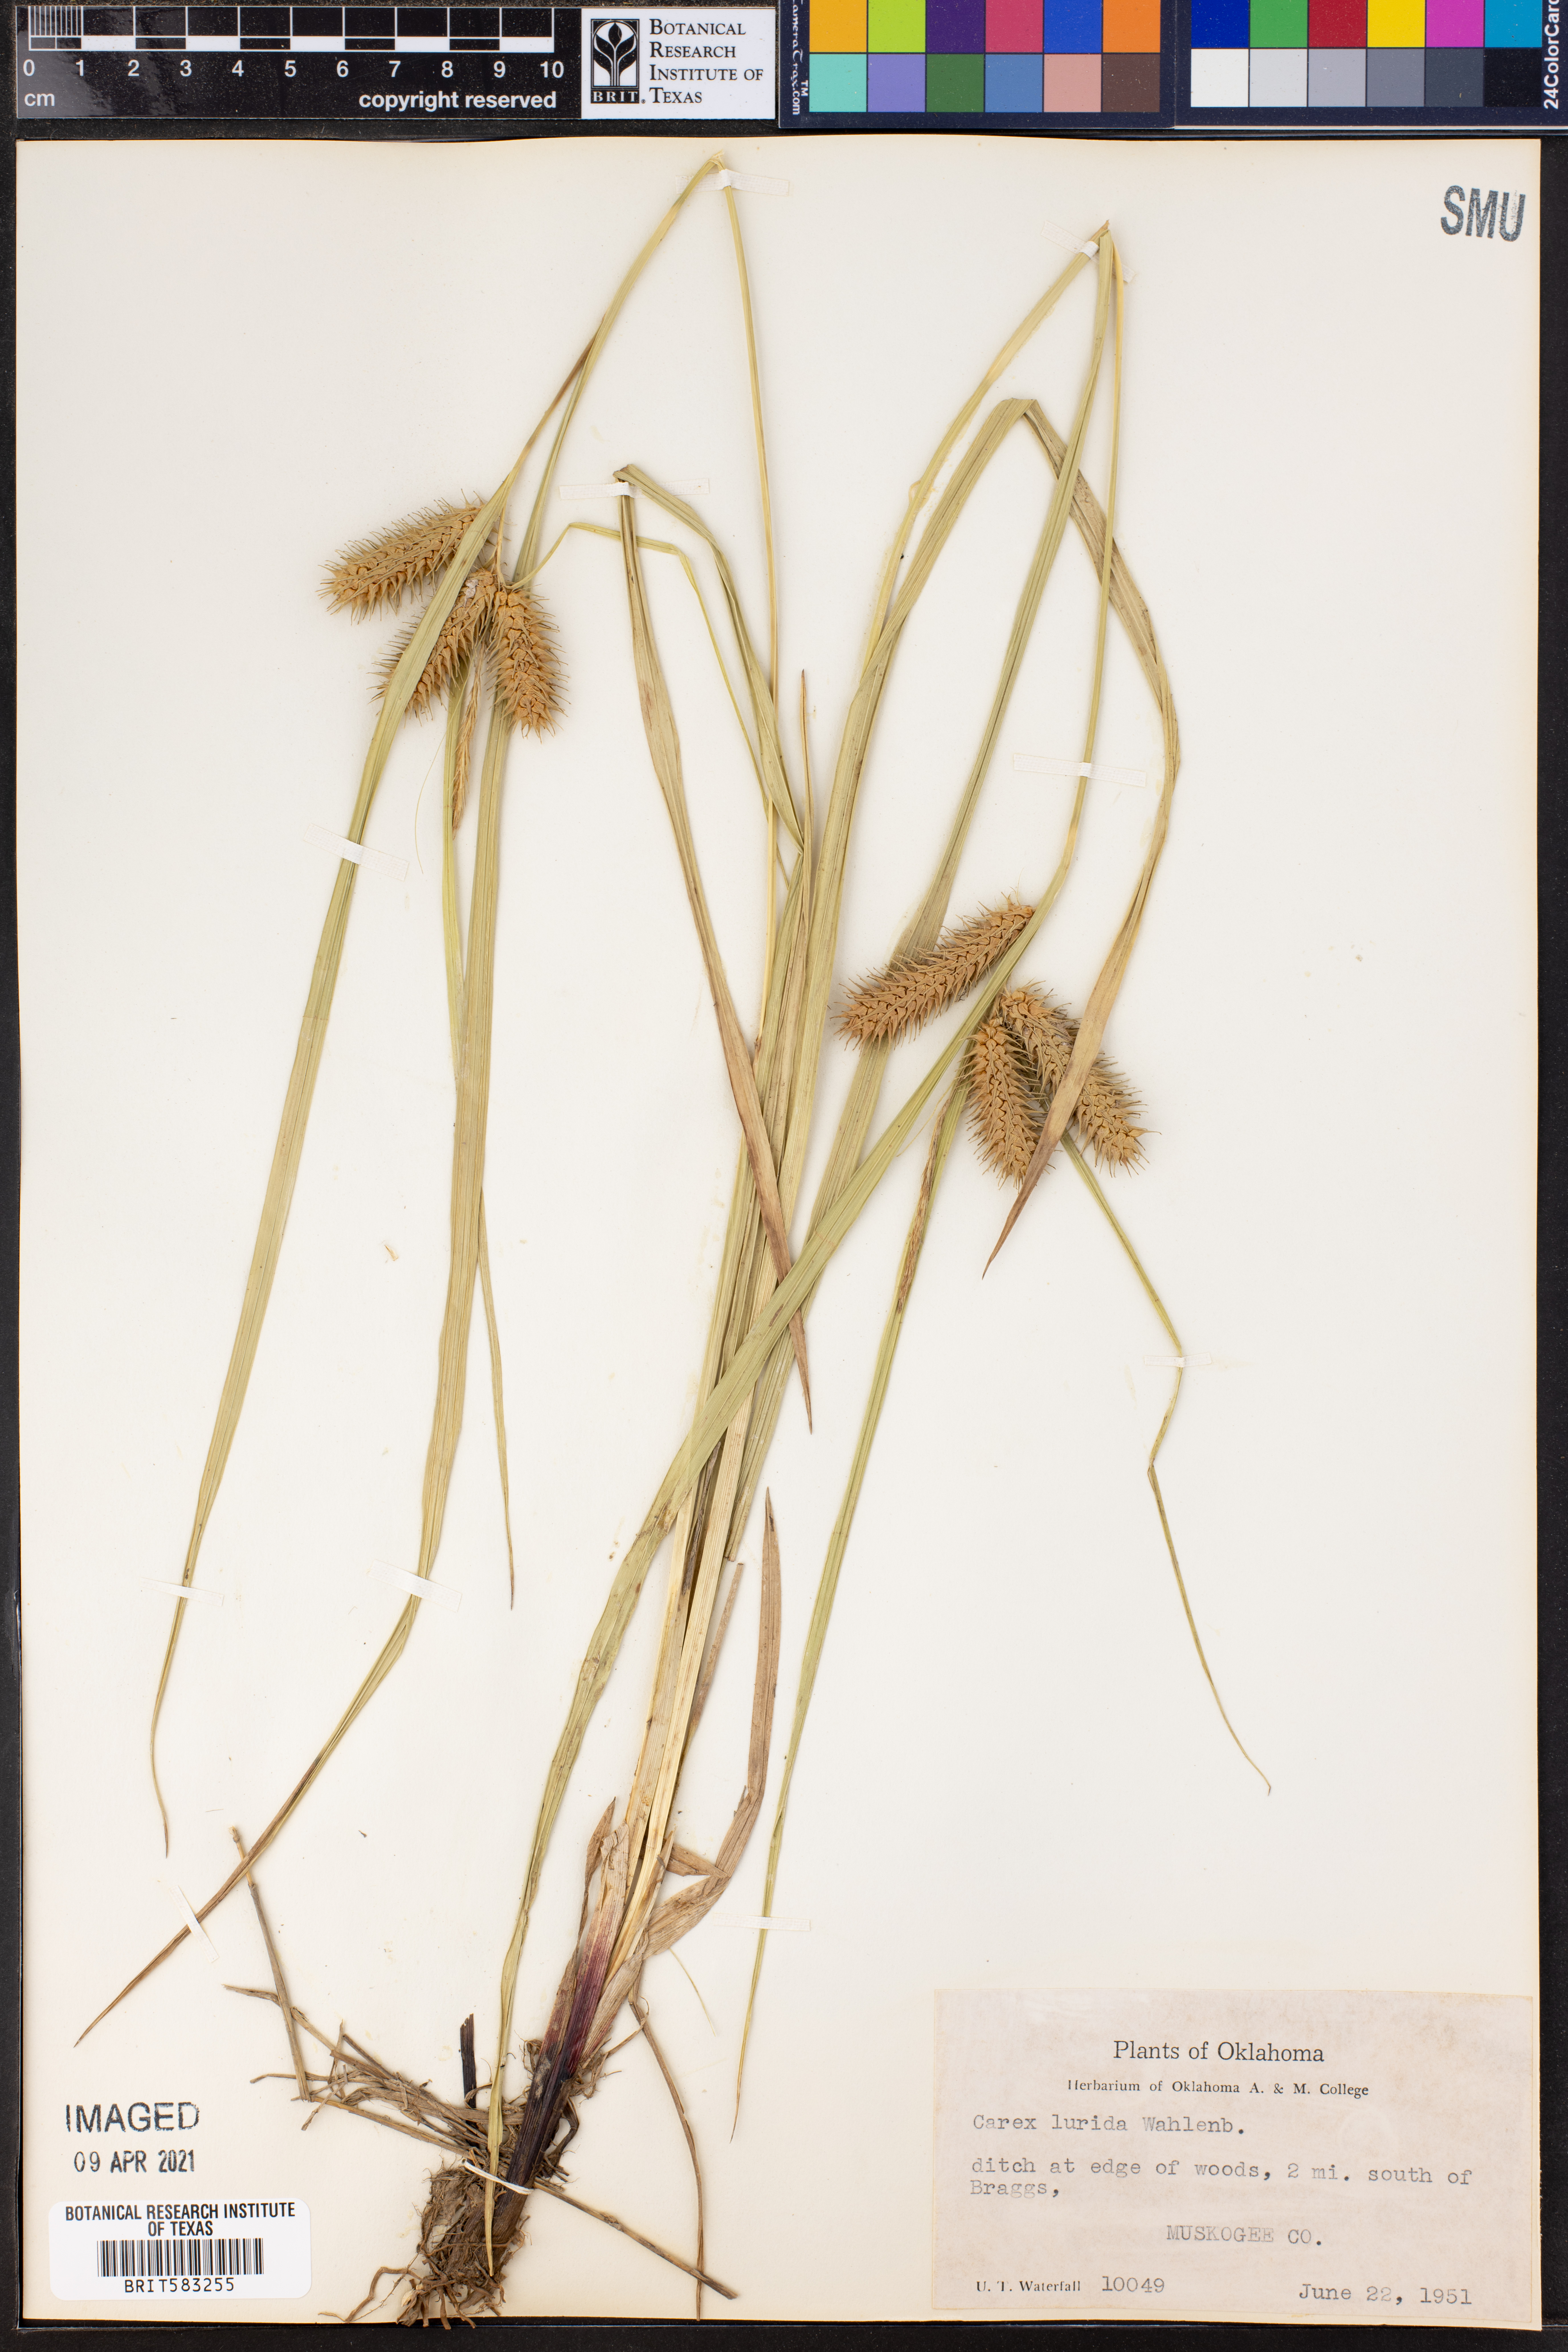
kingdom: Plantae
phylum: Tracheophyta
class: Liliopsida
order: Poales
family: Cyperaceae
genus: Carex
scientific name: Carex lurida
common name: Sallow sedge
